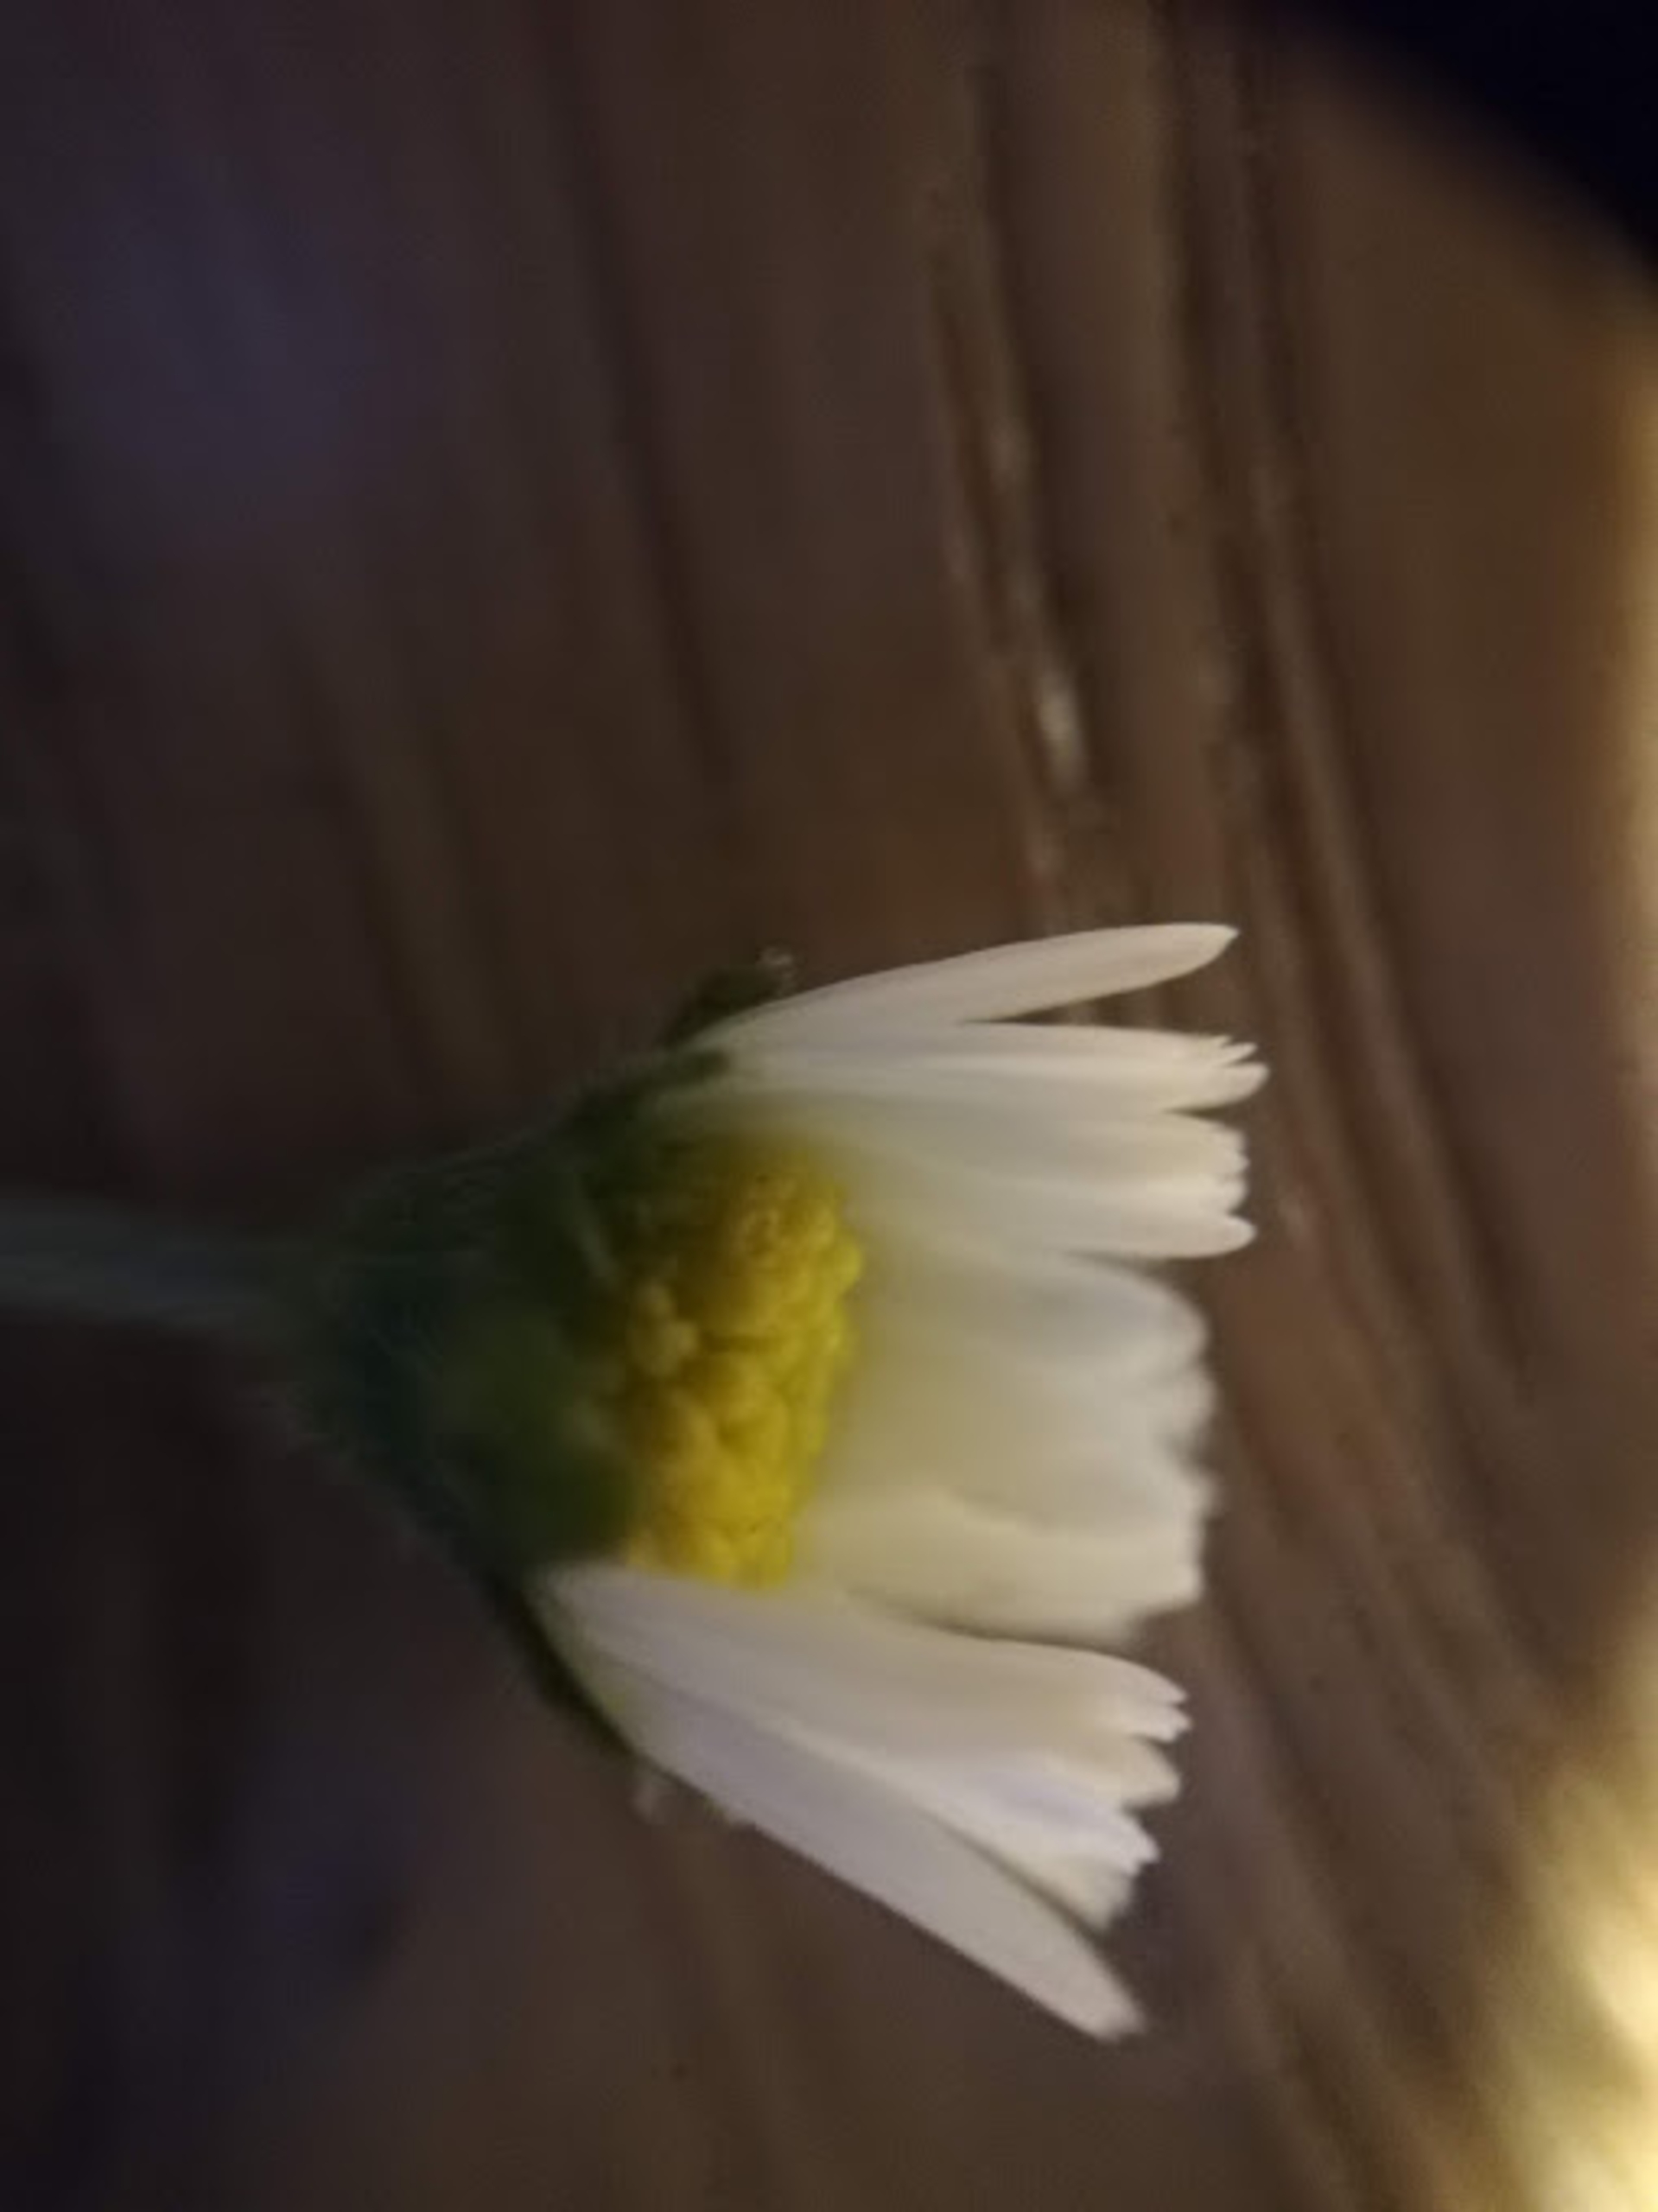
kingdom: Plantae
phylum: Tracheophyta
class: Magnoliopsida
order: Asterales
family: Asteraceae
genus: Bellis
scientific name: Bellis perennis
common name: Tusindfryd
